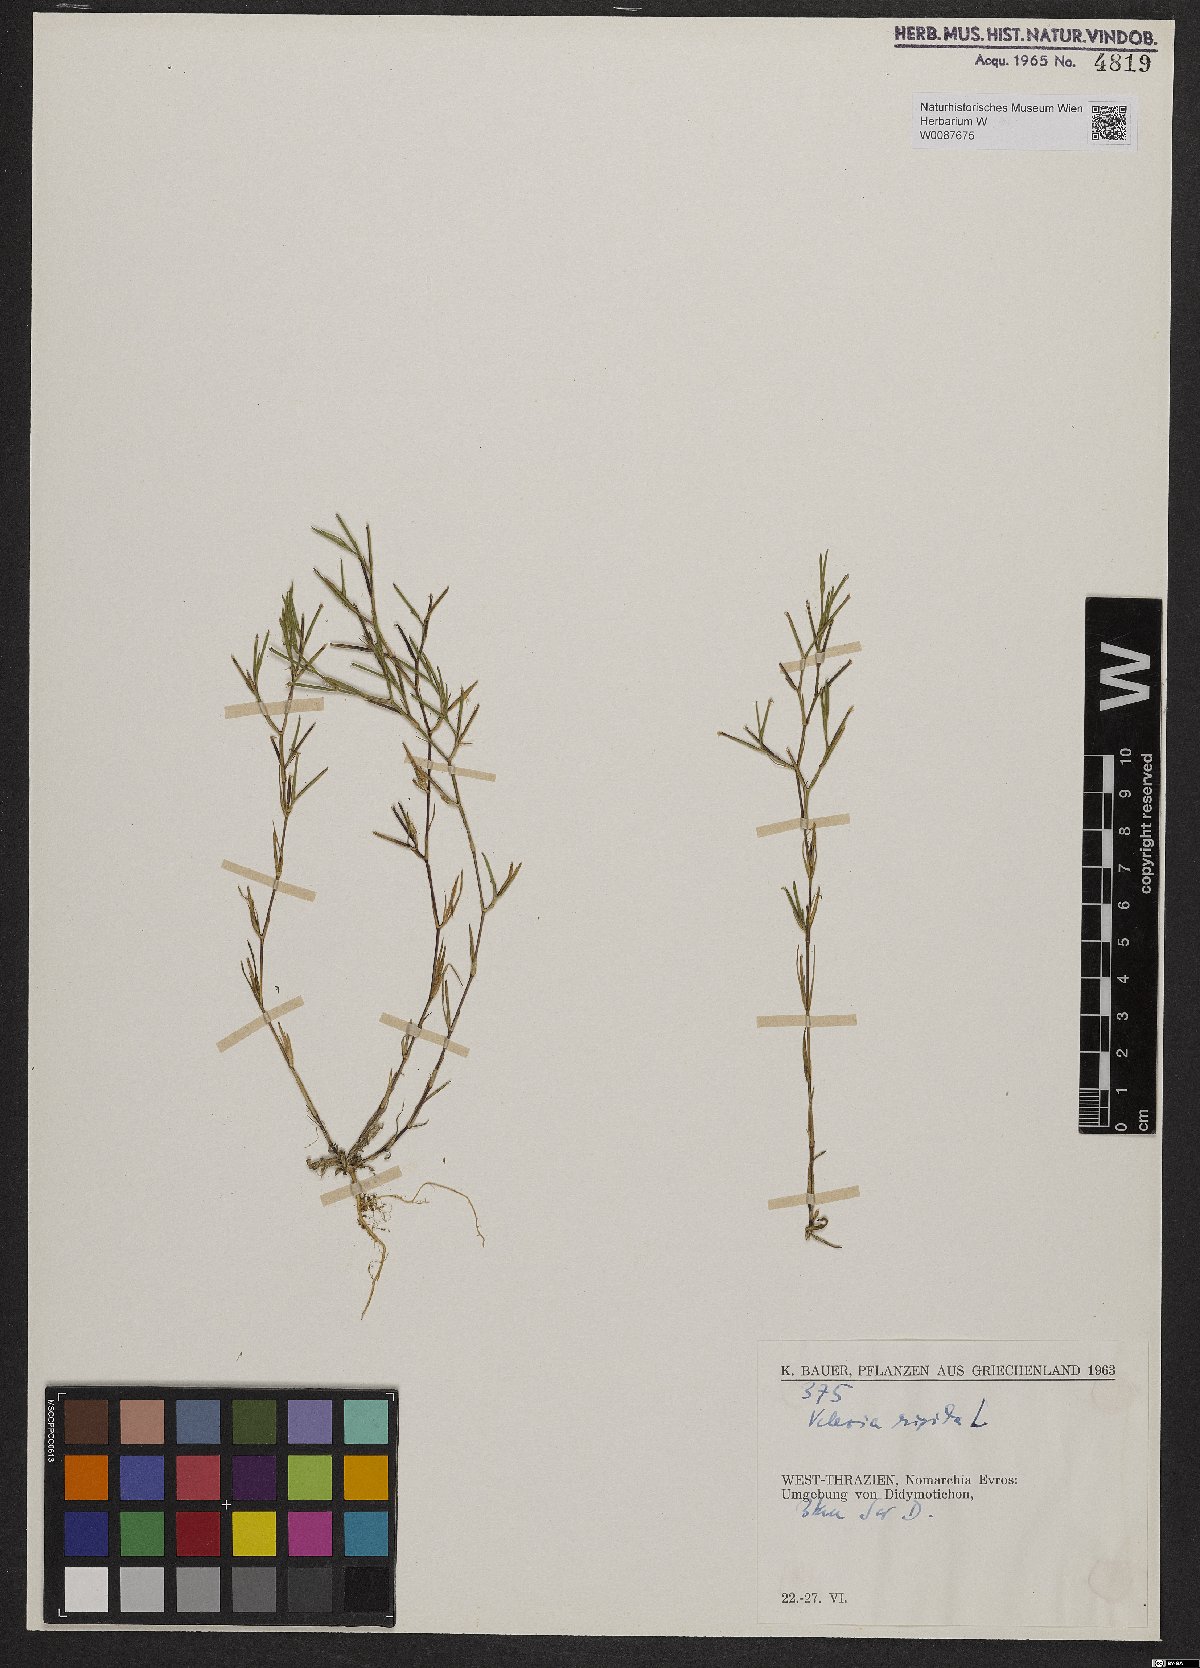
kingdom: Plantae
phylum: Tracheophyta
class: Magnoliopsida
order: Caryophyllales
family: Caryophyllaceae
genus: Dianthus
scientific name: Dianthus nudiflorus
